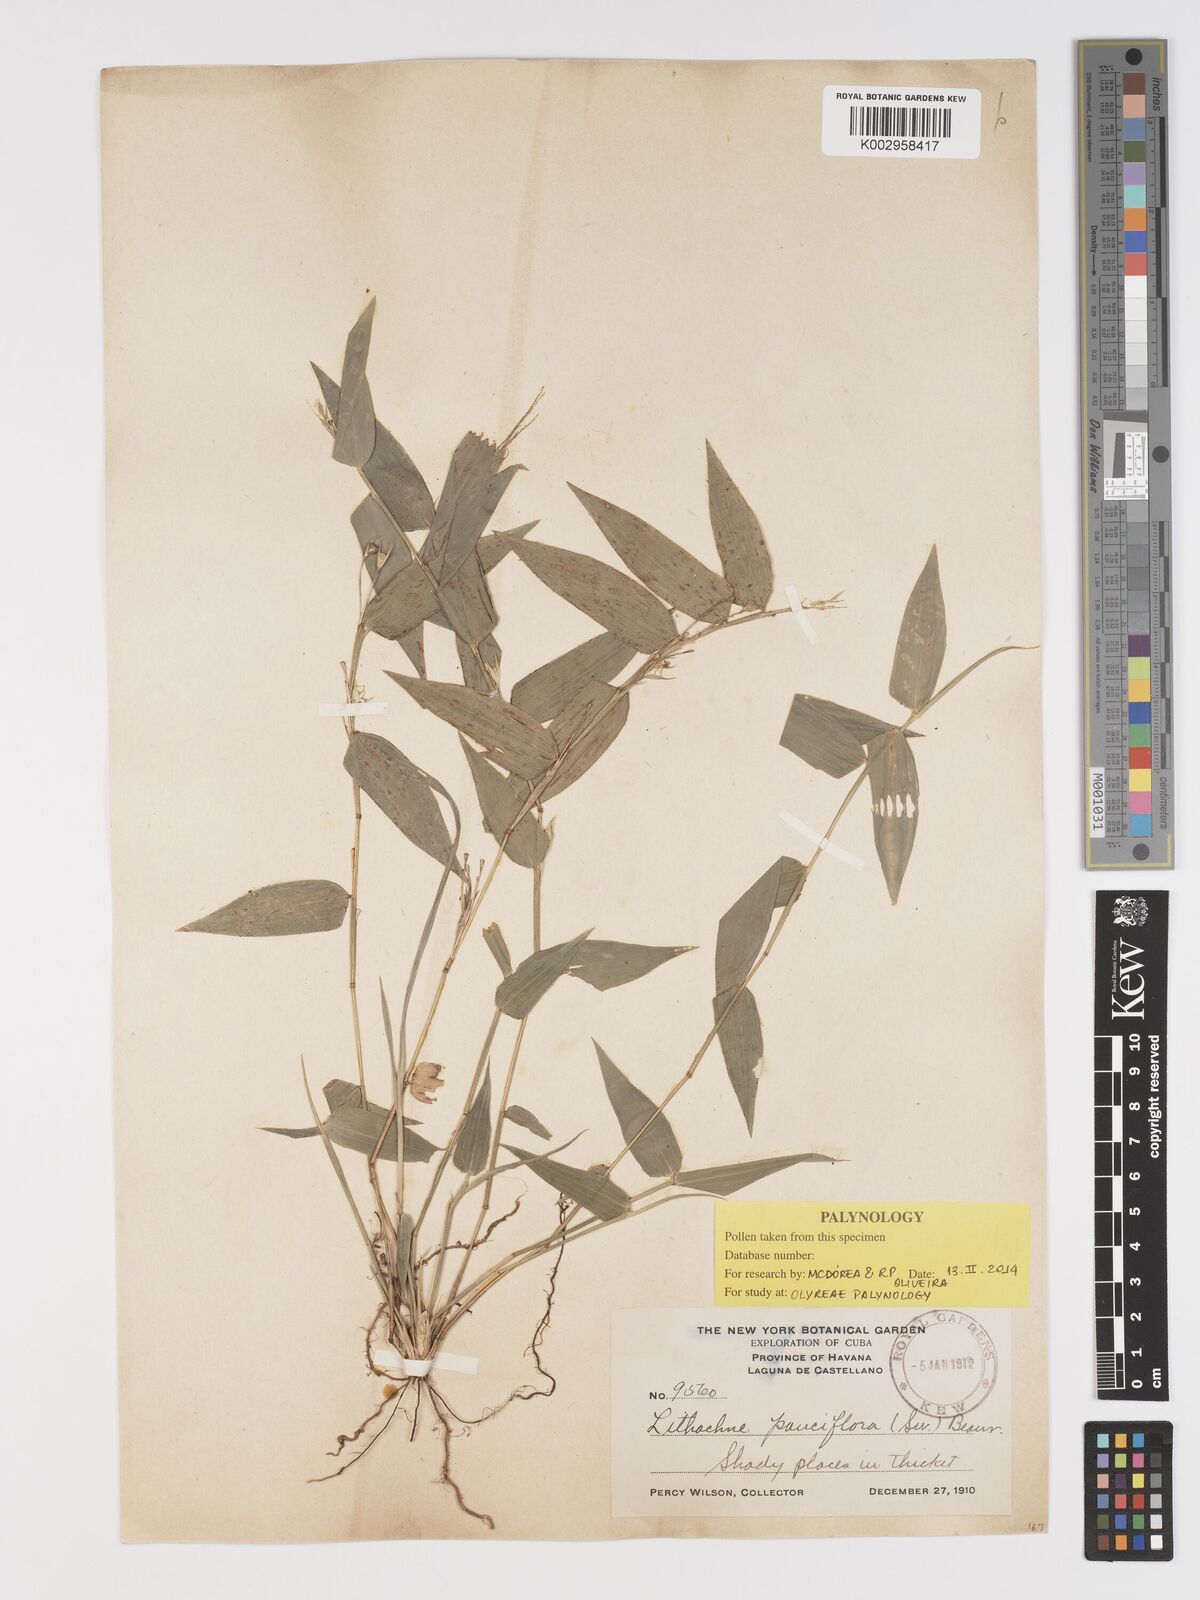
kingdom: Plantae
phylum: Tracheophyta
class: Liliopsida
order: Poales
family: Poaceae
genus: Lithachne
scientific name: Lithachne pauciflora
